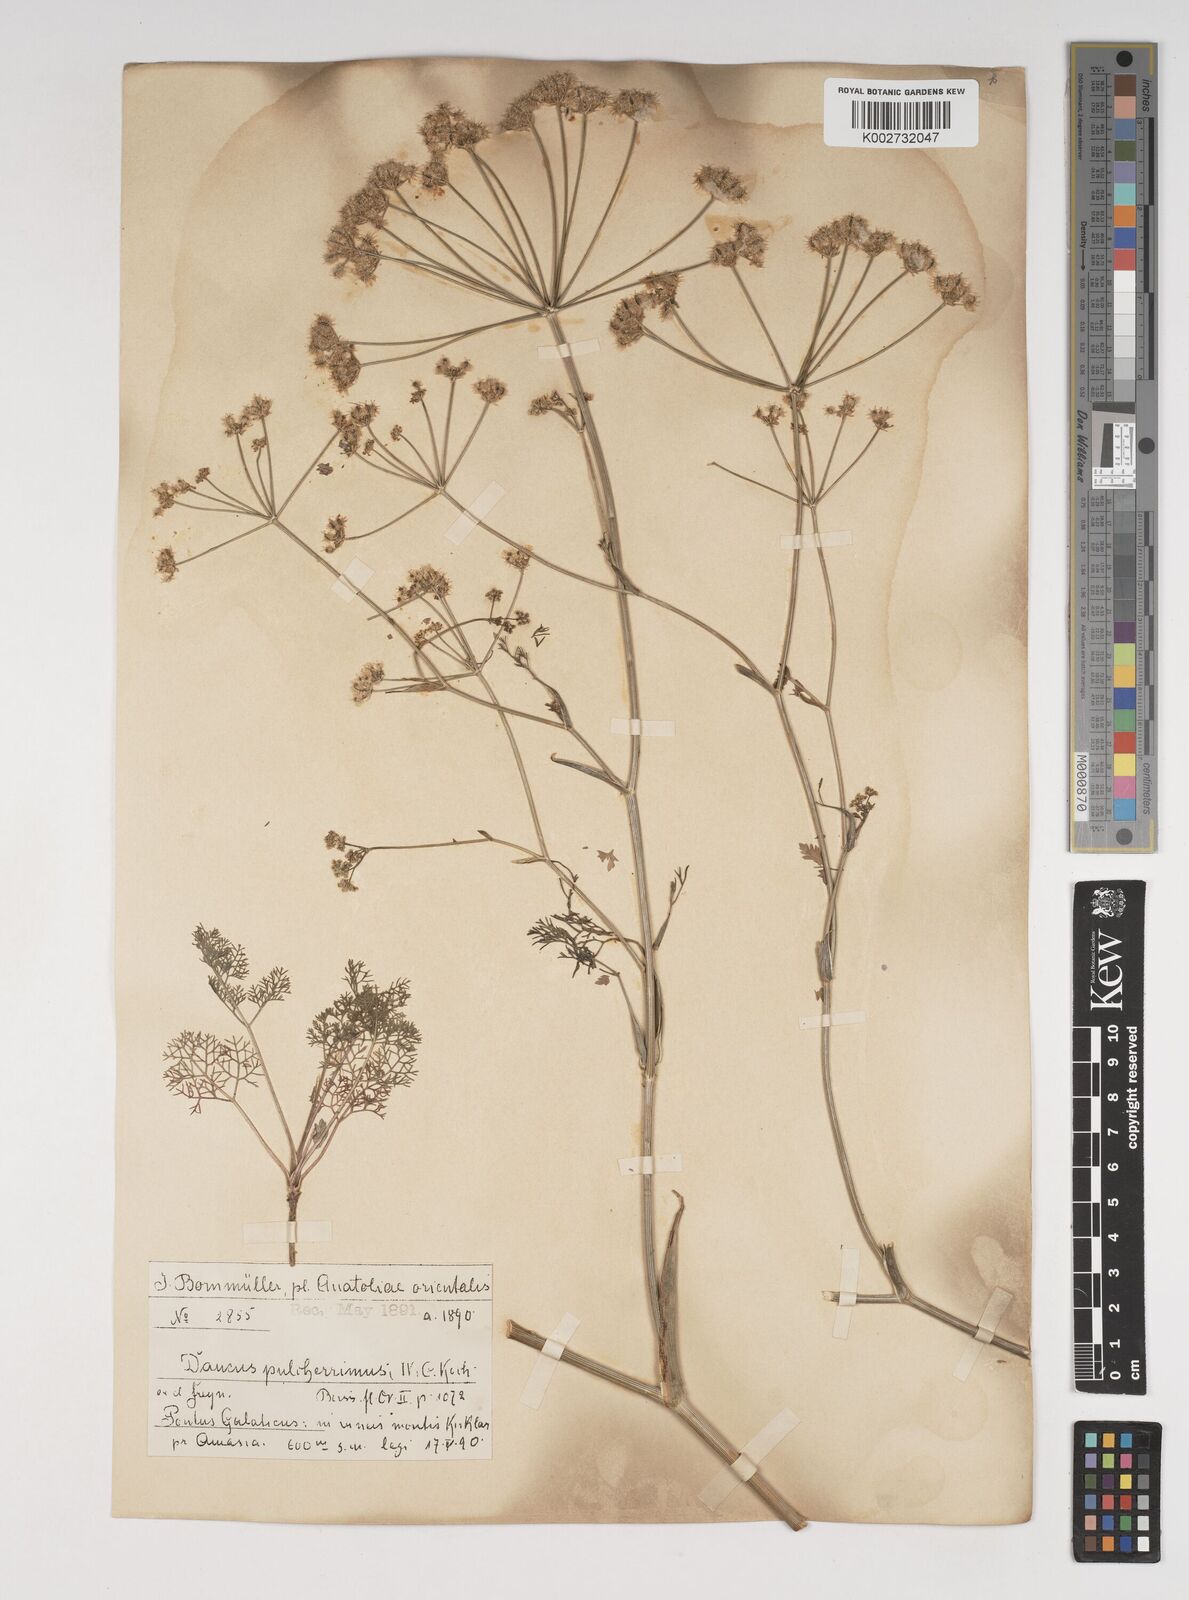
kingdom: Plantae
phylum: Tracheophyta
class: Magnoliopsida
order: Apiales
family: Apiaceae
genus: Astrodaucus
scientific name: Astrodaucus
